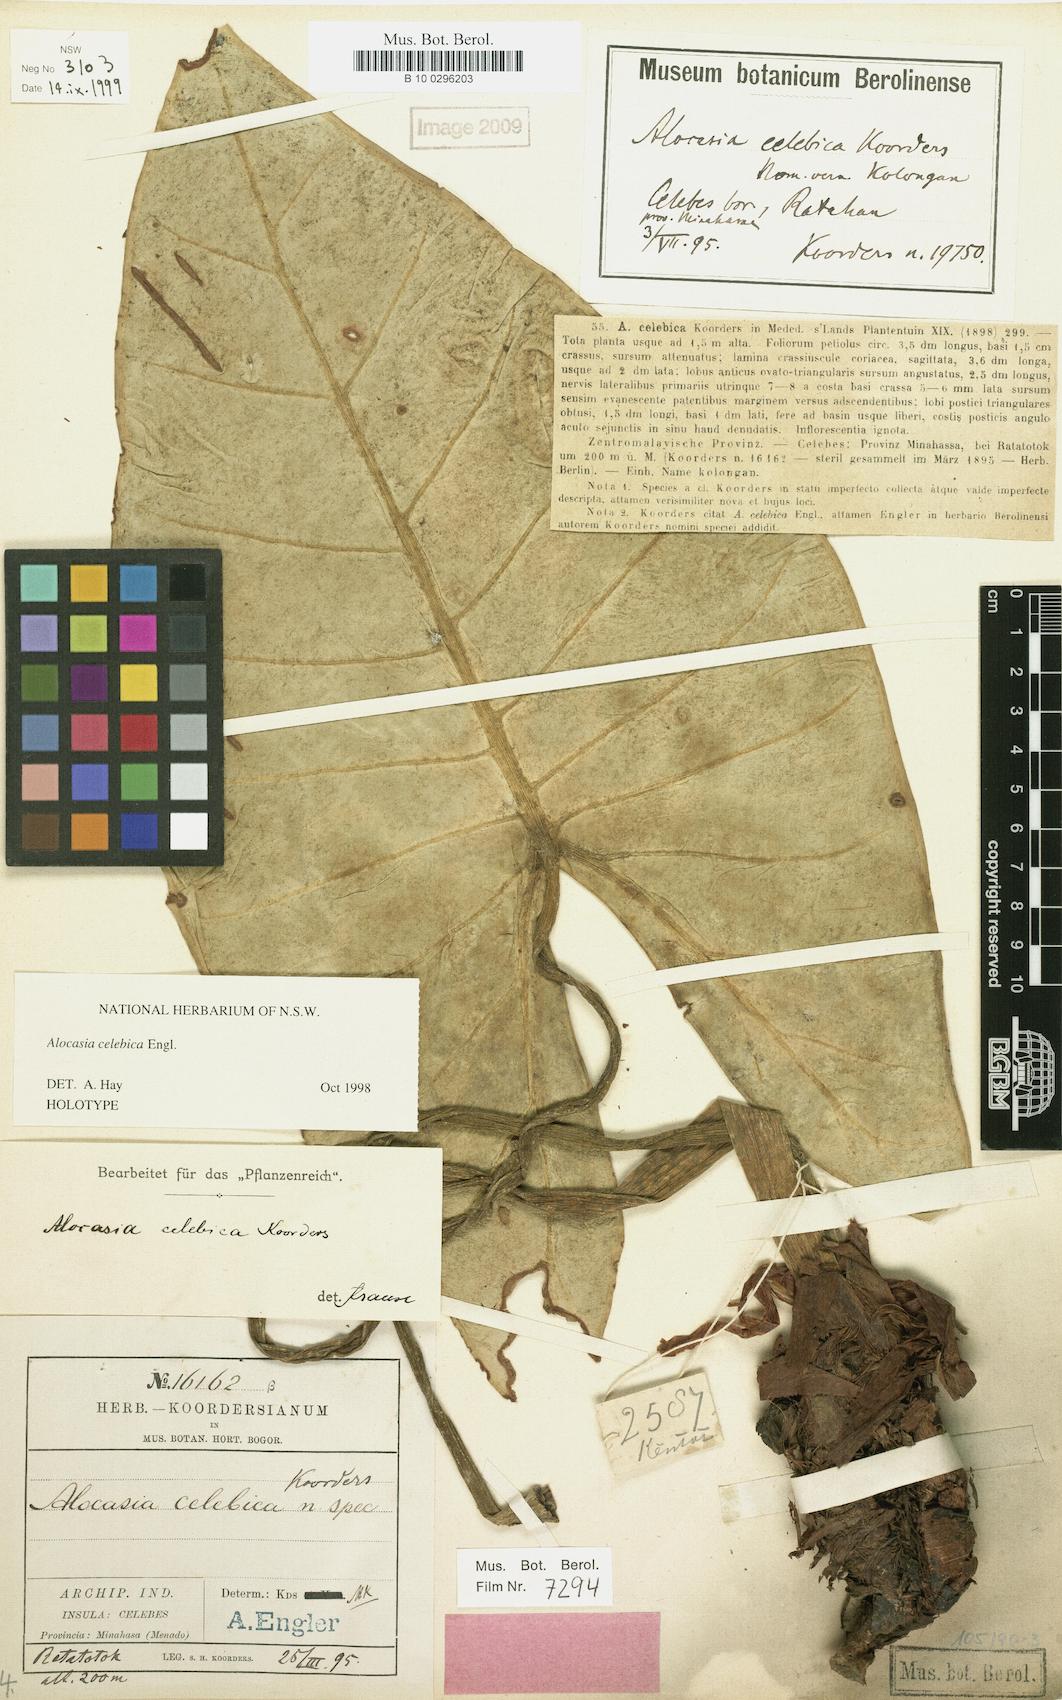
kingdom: Plantae
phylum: Tracheophyta
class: Liliopsida
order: Alismatales
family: Araceae
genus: Alocasia
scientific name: Alocasia celebica
